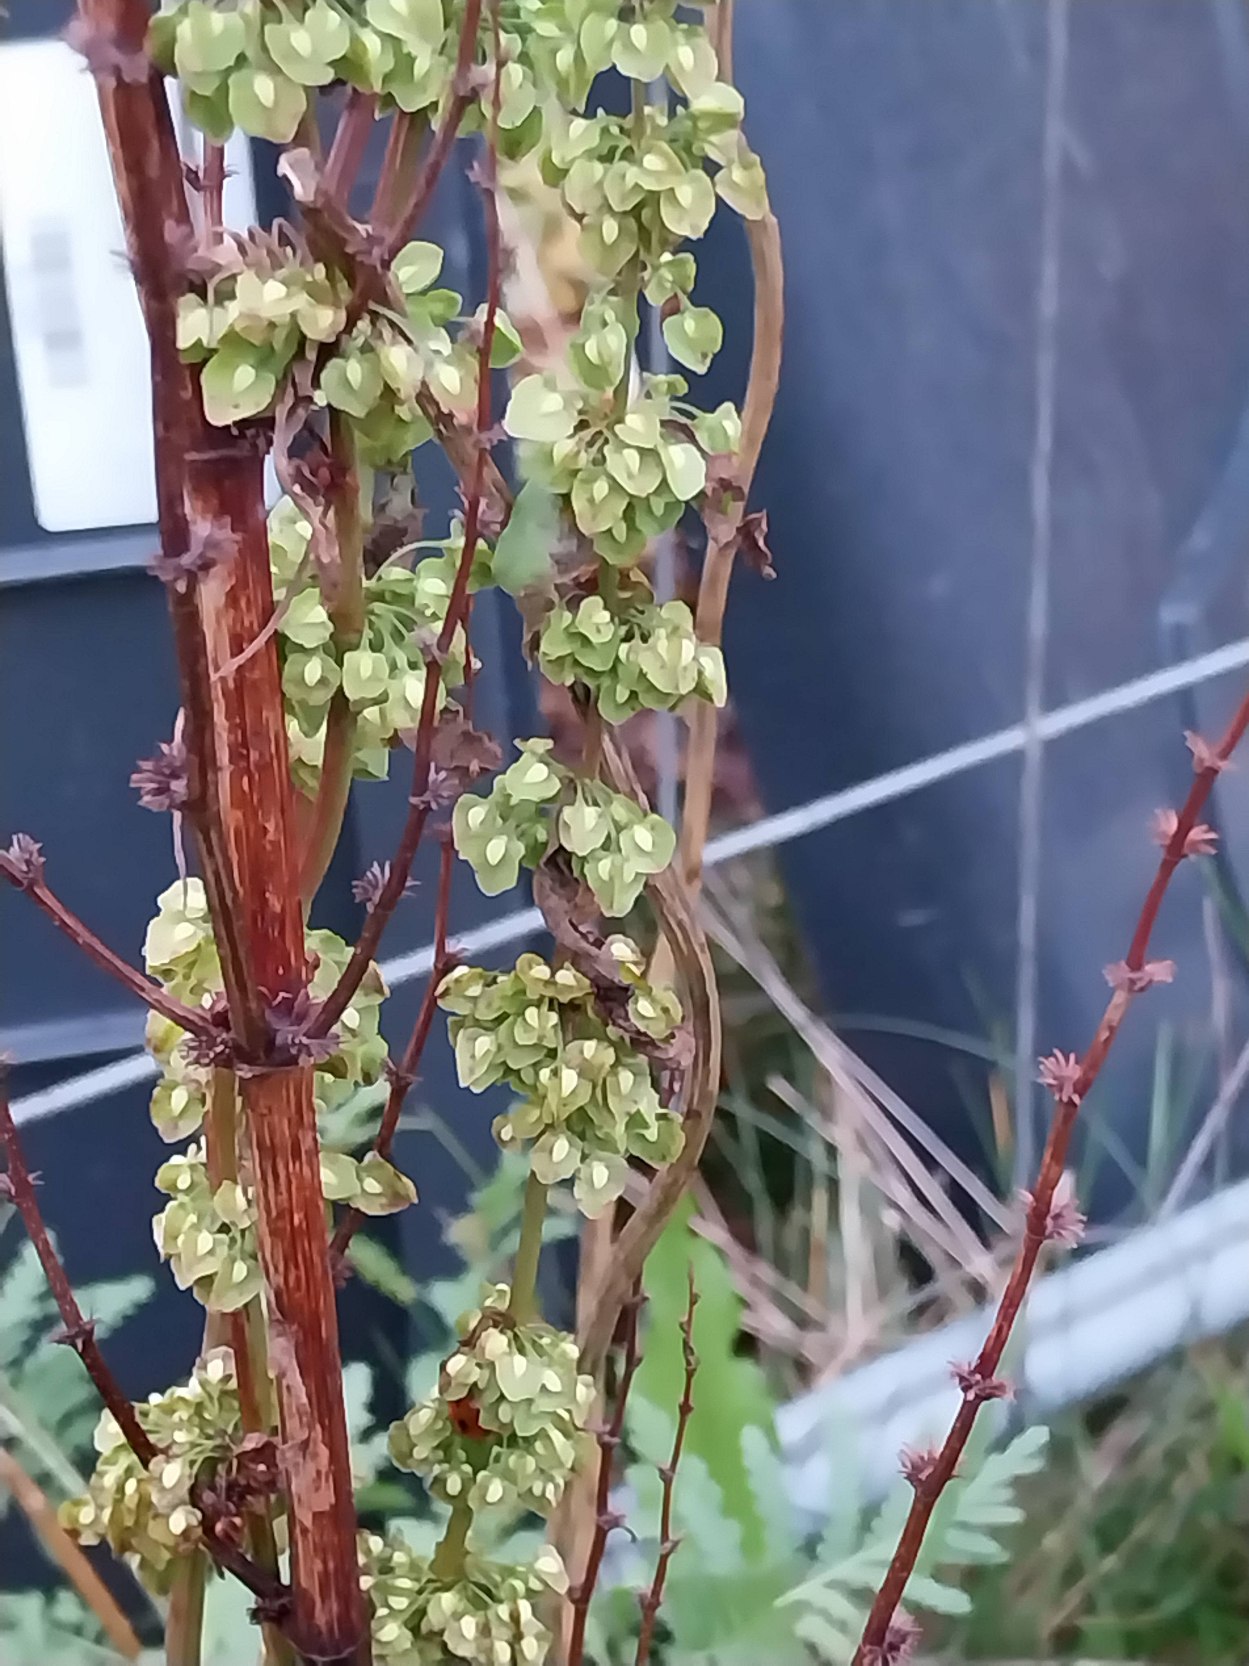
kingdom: Plantae
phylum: Tracheophyta
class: Magnoliopsida
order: Caryophyllales
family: Polygonaceae
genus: Rumex
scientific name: Rumex crispus
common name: Kruset skræppe
